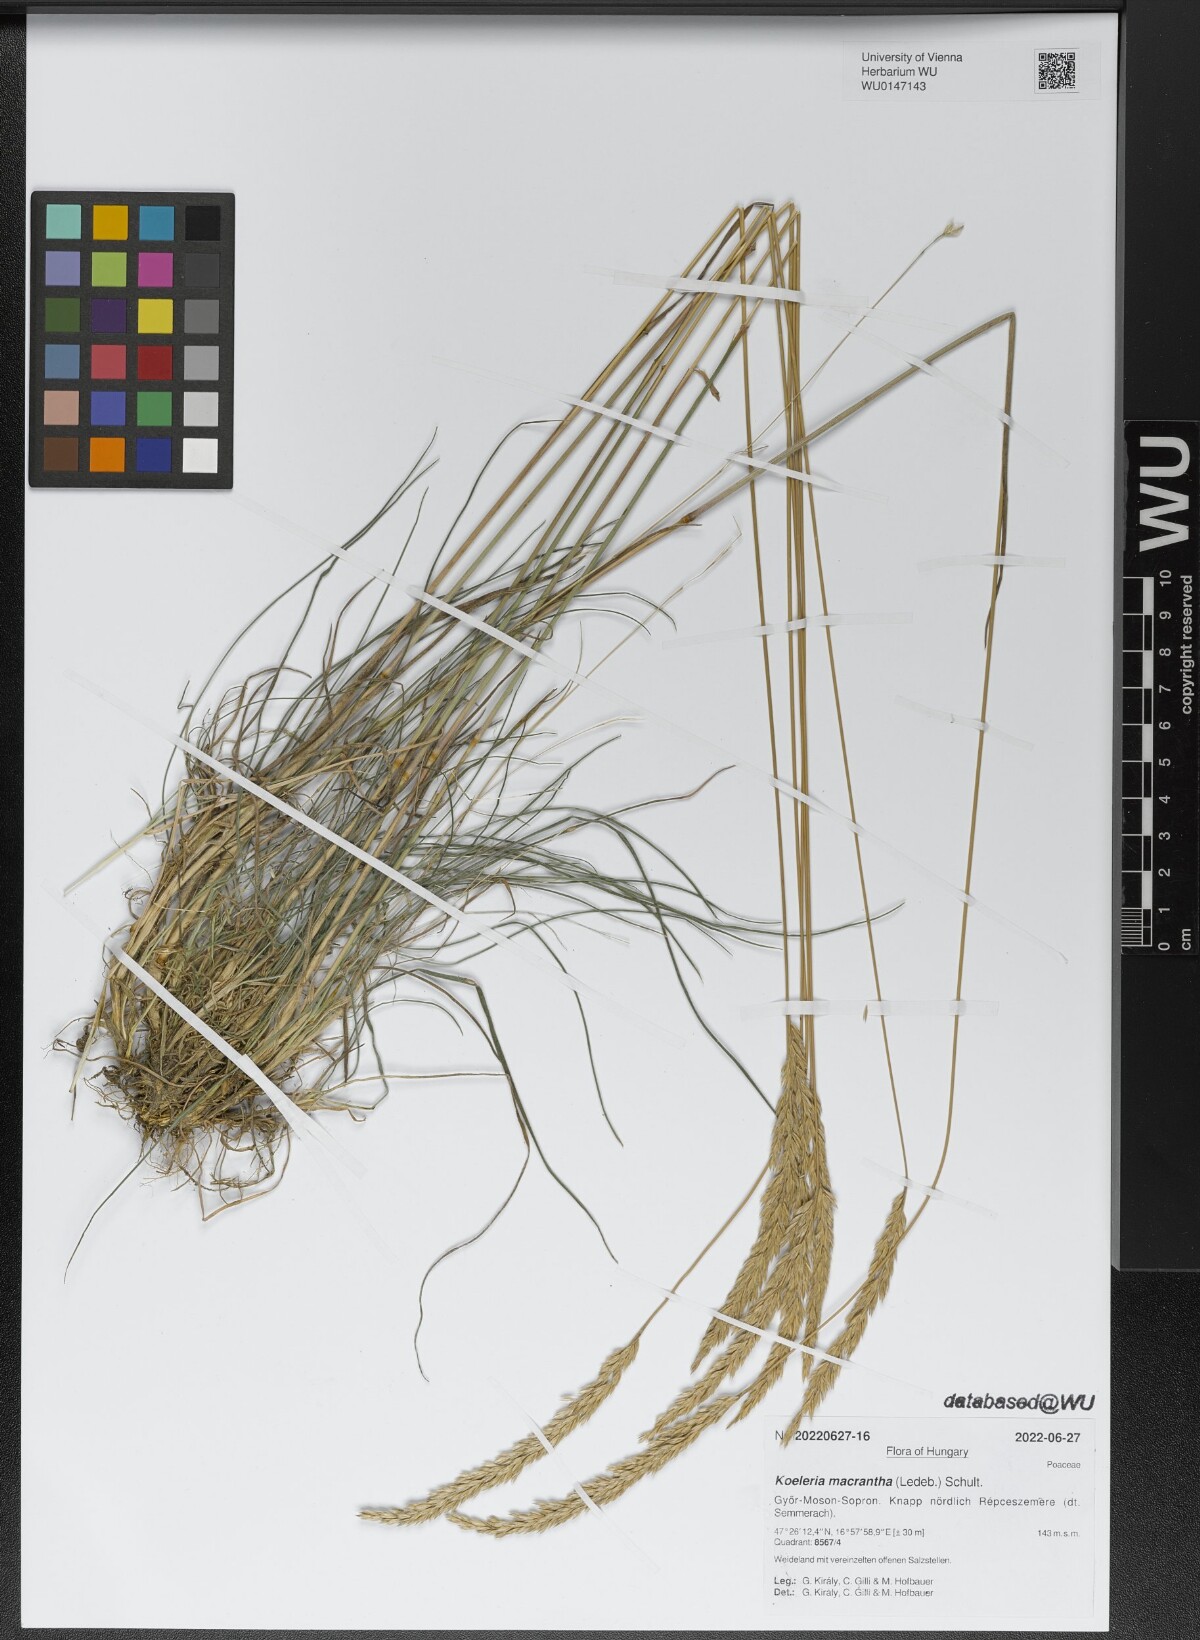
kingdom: Plantae
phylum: Tracheophyta
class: Liliopsida
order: Poales
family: Poaceae
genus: Koeleria
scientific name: Koeleria macrantha
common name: Crested hair-grass
